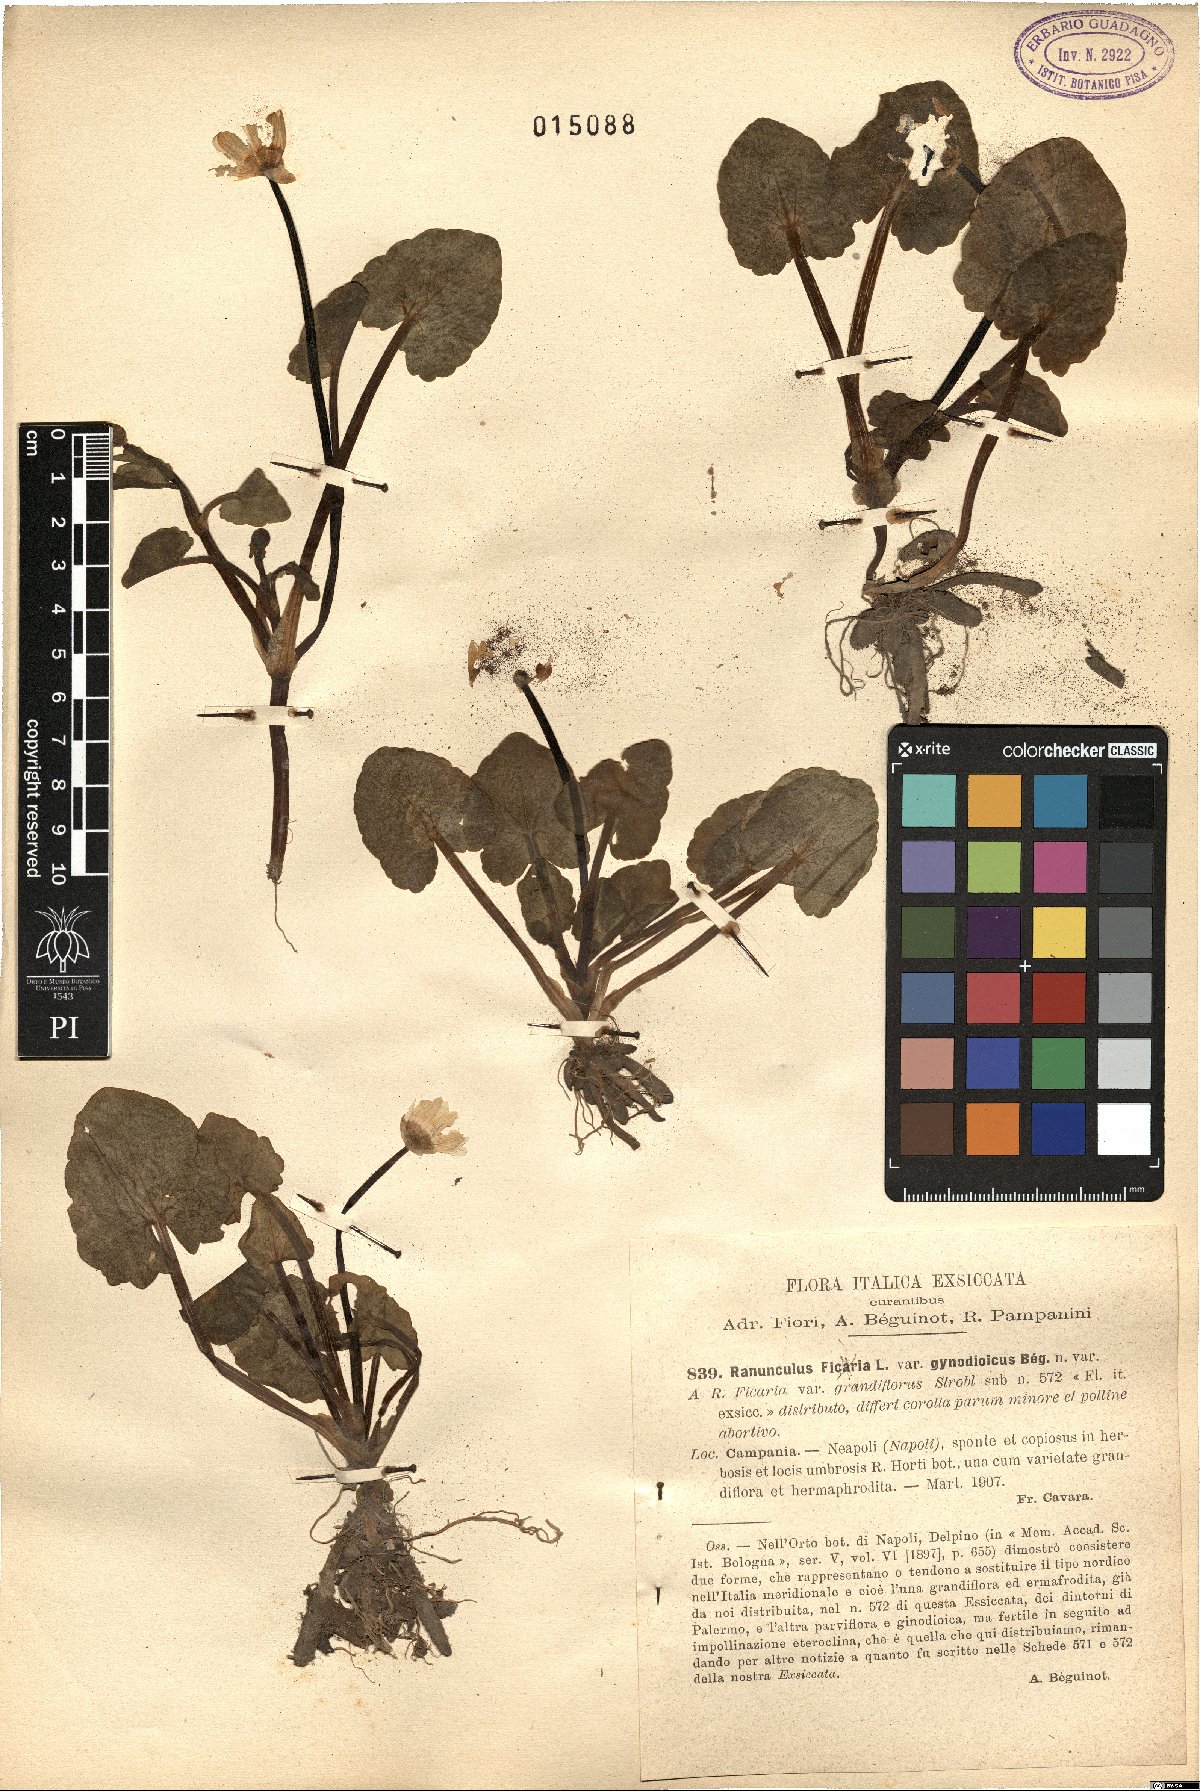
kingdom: Plantae
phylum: Tracheophyta
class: Magnoliopsida
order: Ranunculales
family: Ranunculaceae
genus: Ranunculus
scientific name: Ranunculus ficaria
